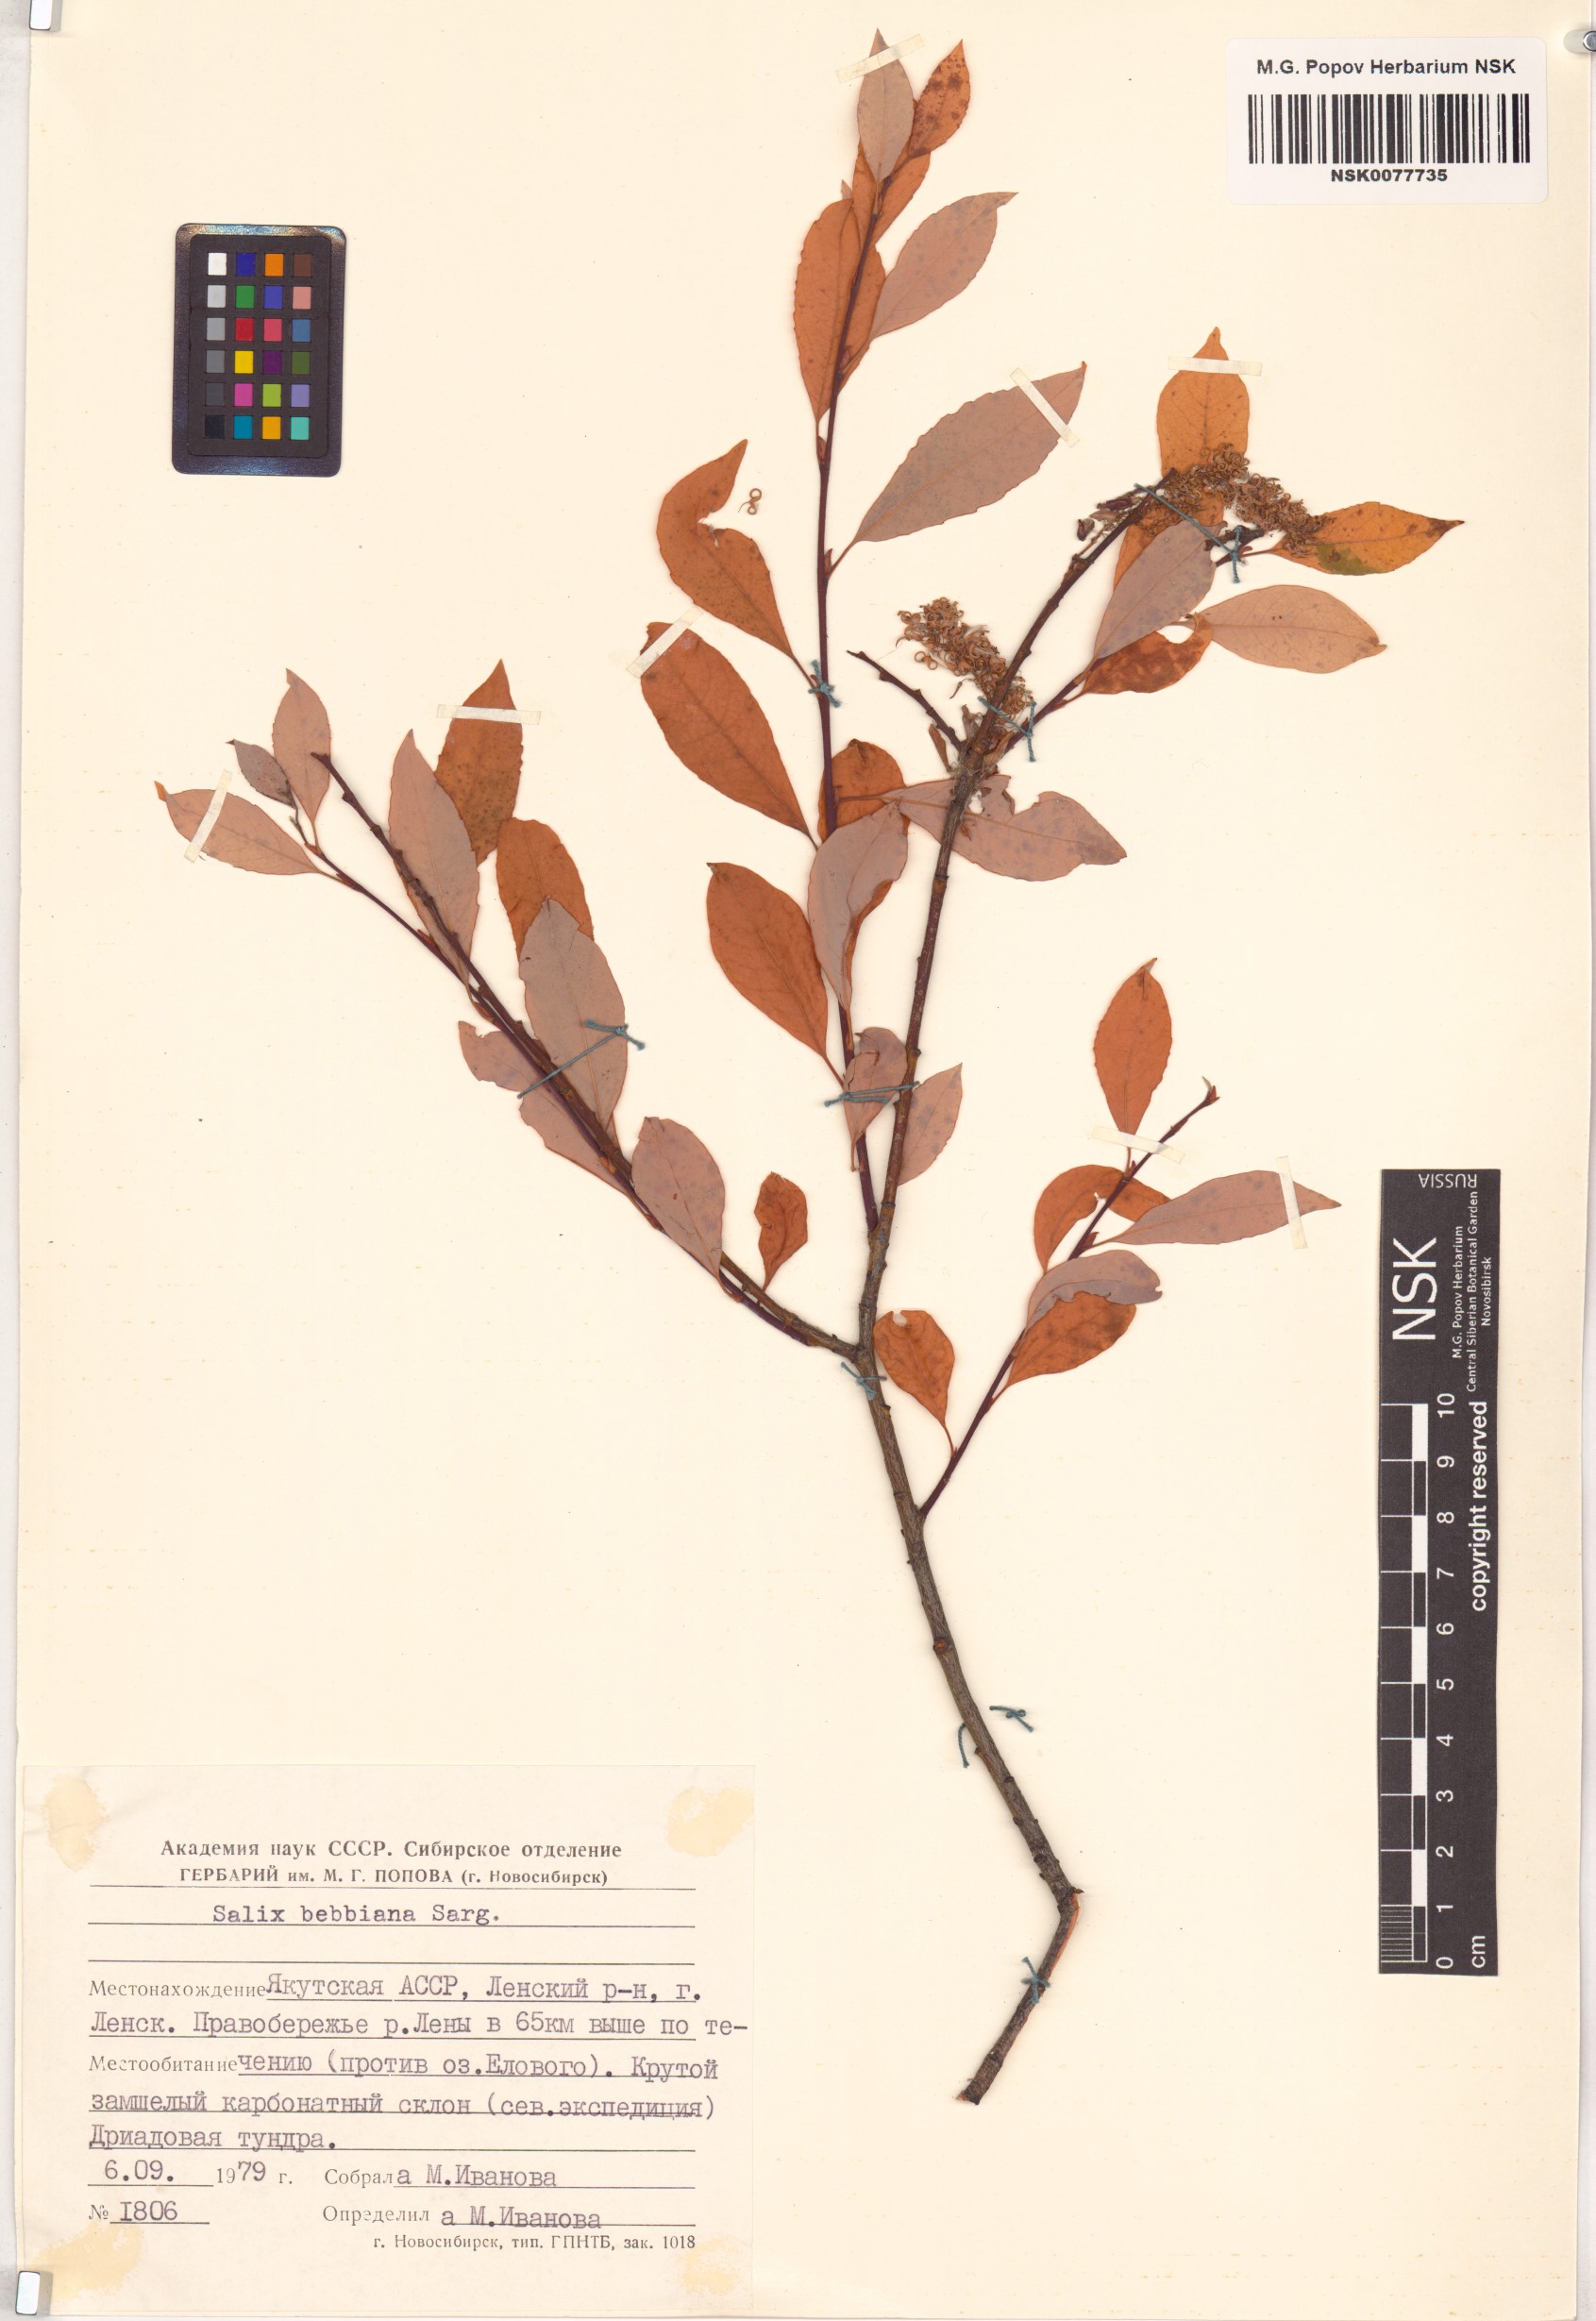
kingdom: Plantae
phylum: Tracheophyta
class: Magnoliopsida
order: Malpighiales
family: Salicaceae
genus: Salix
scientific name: Salix bebbiana
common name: Bebb's willow
